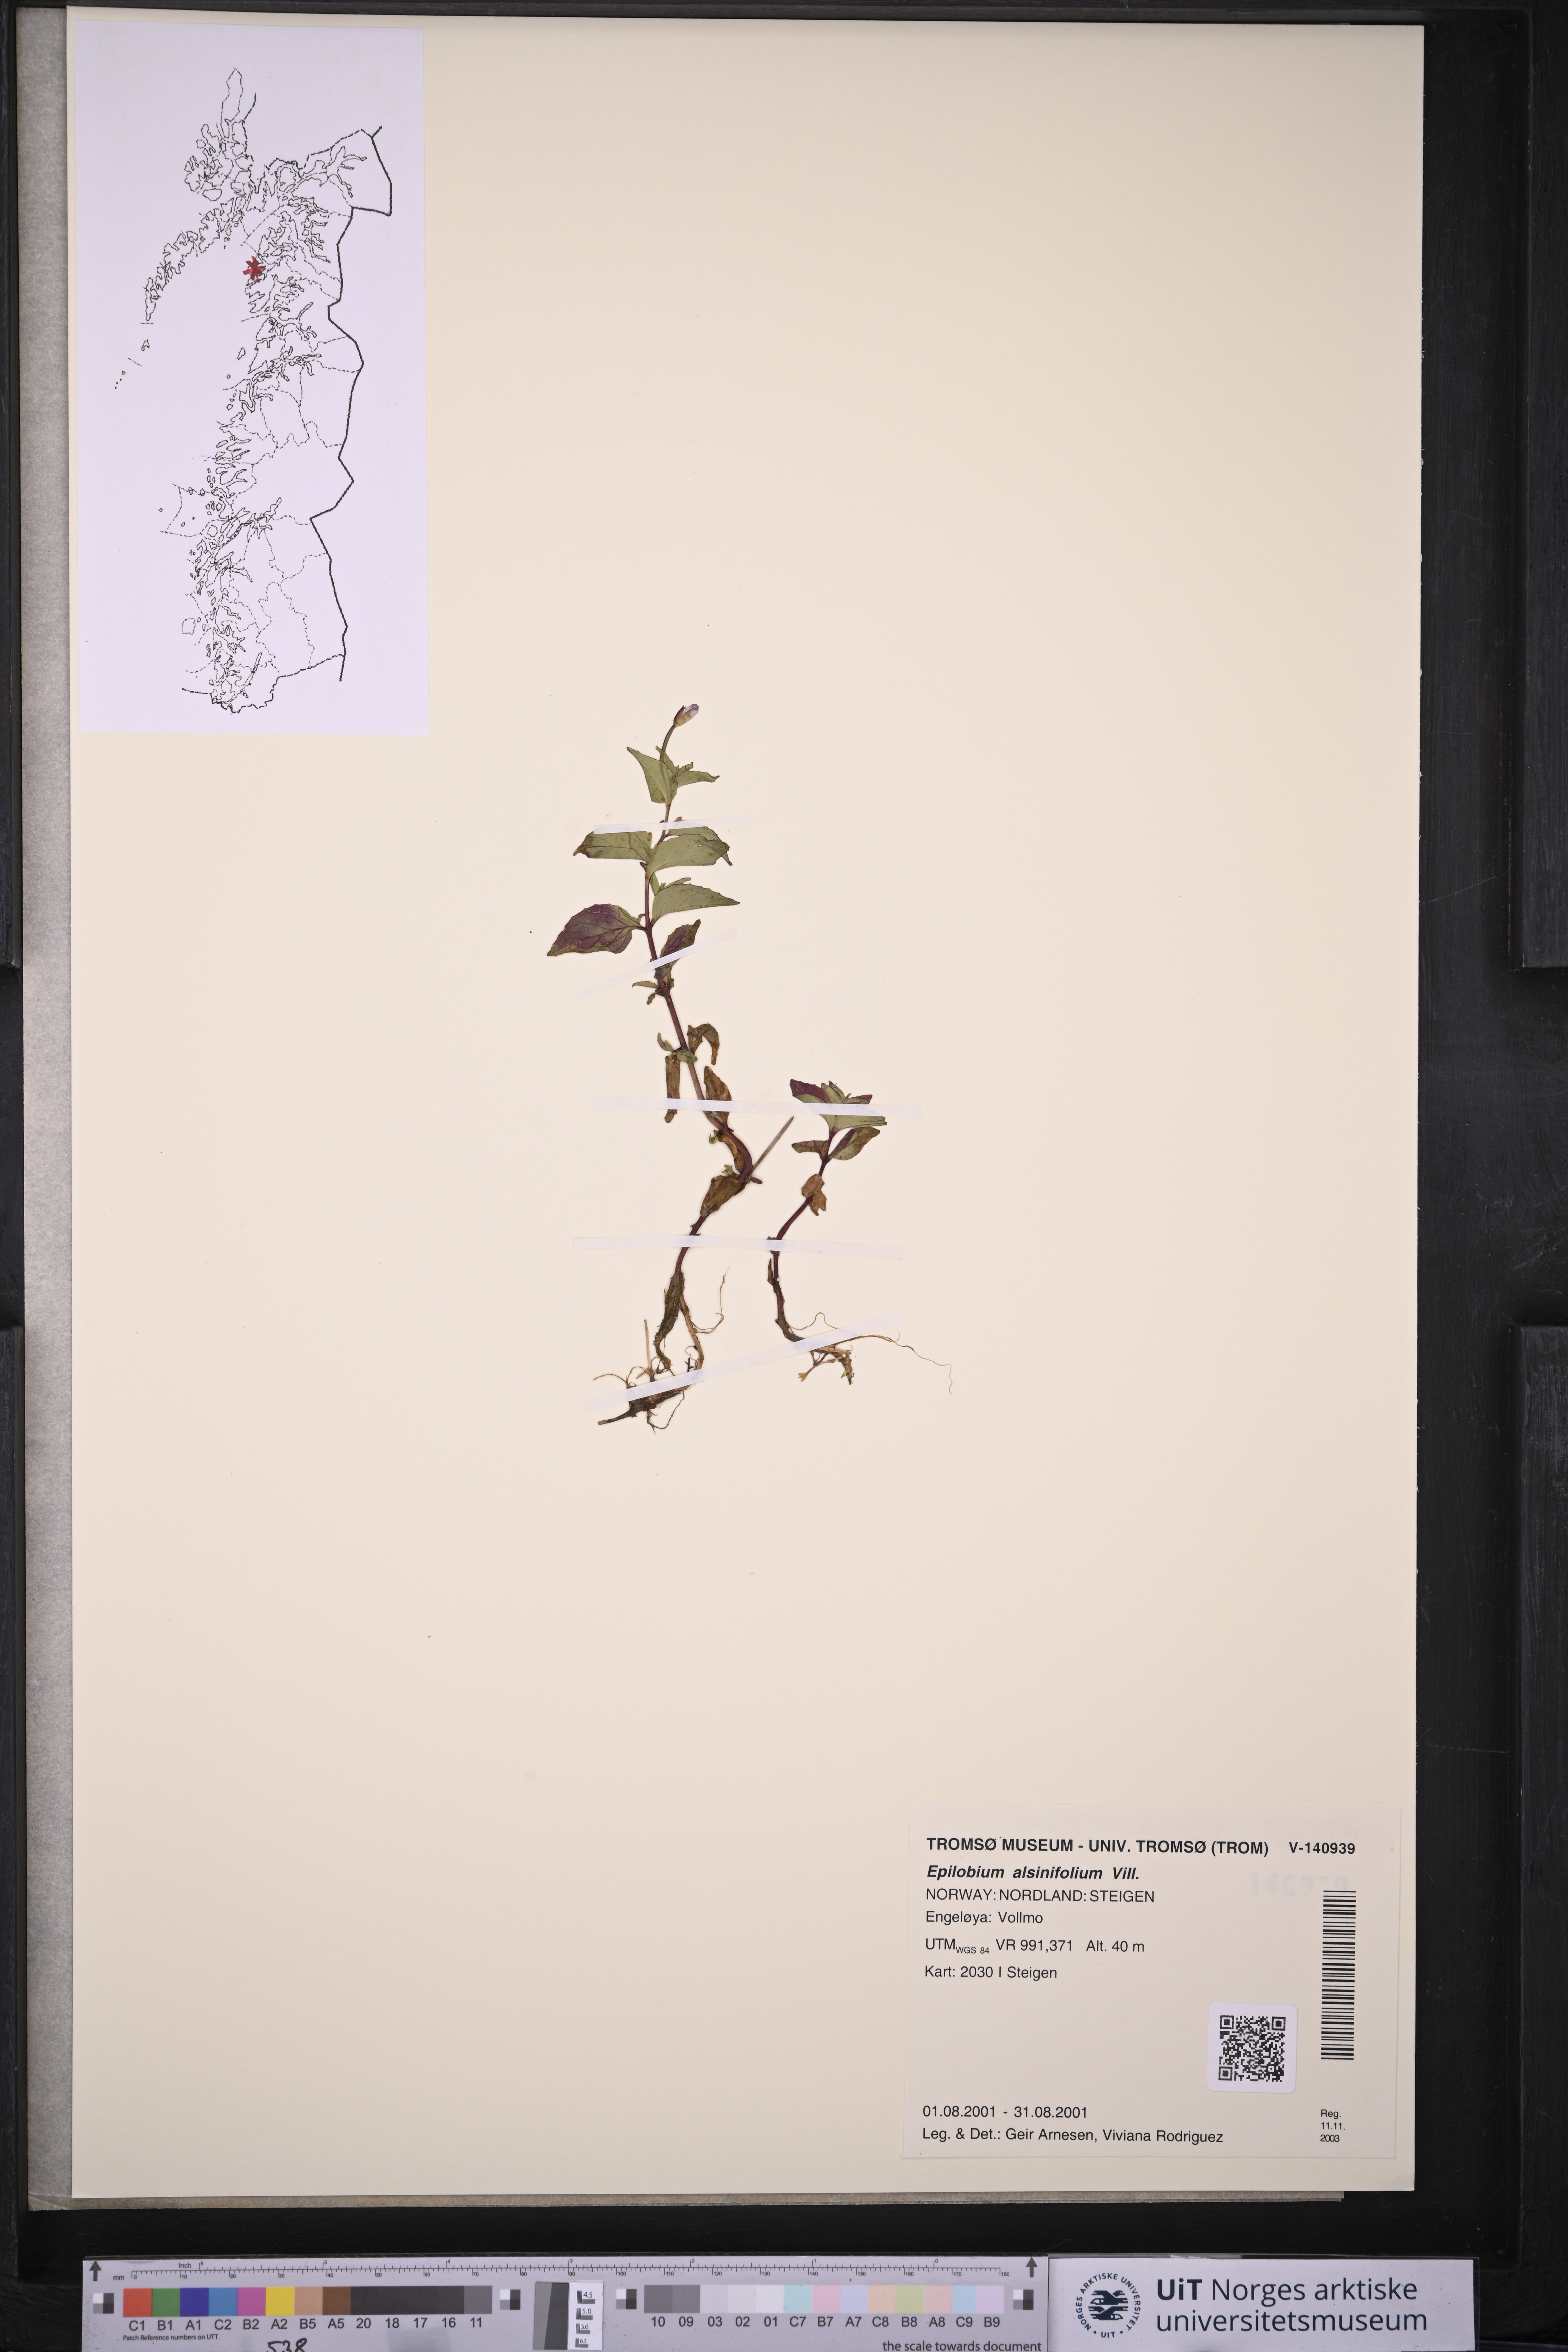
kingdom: Plantae
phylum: Tracheophyta
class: Magnoliopsida
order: Myrtales
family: Onagraceae
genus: Epilobium
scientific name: Epilobium alsinifolium
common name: Chickweed willowherb
